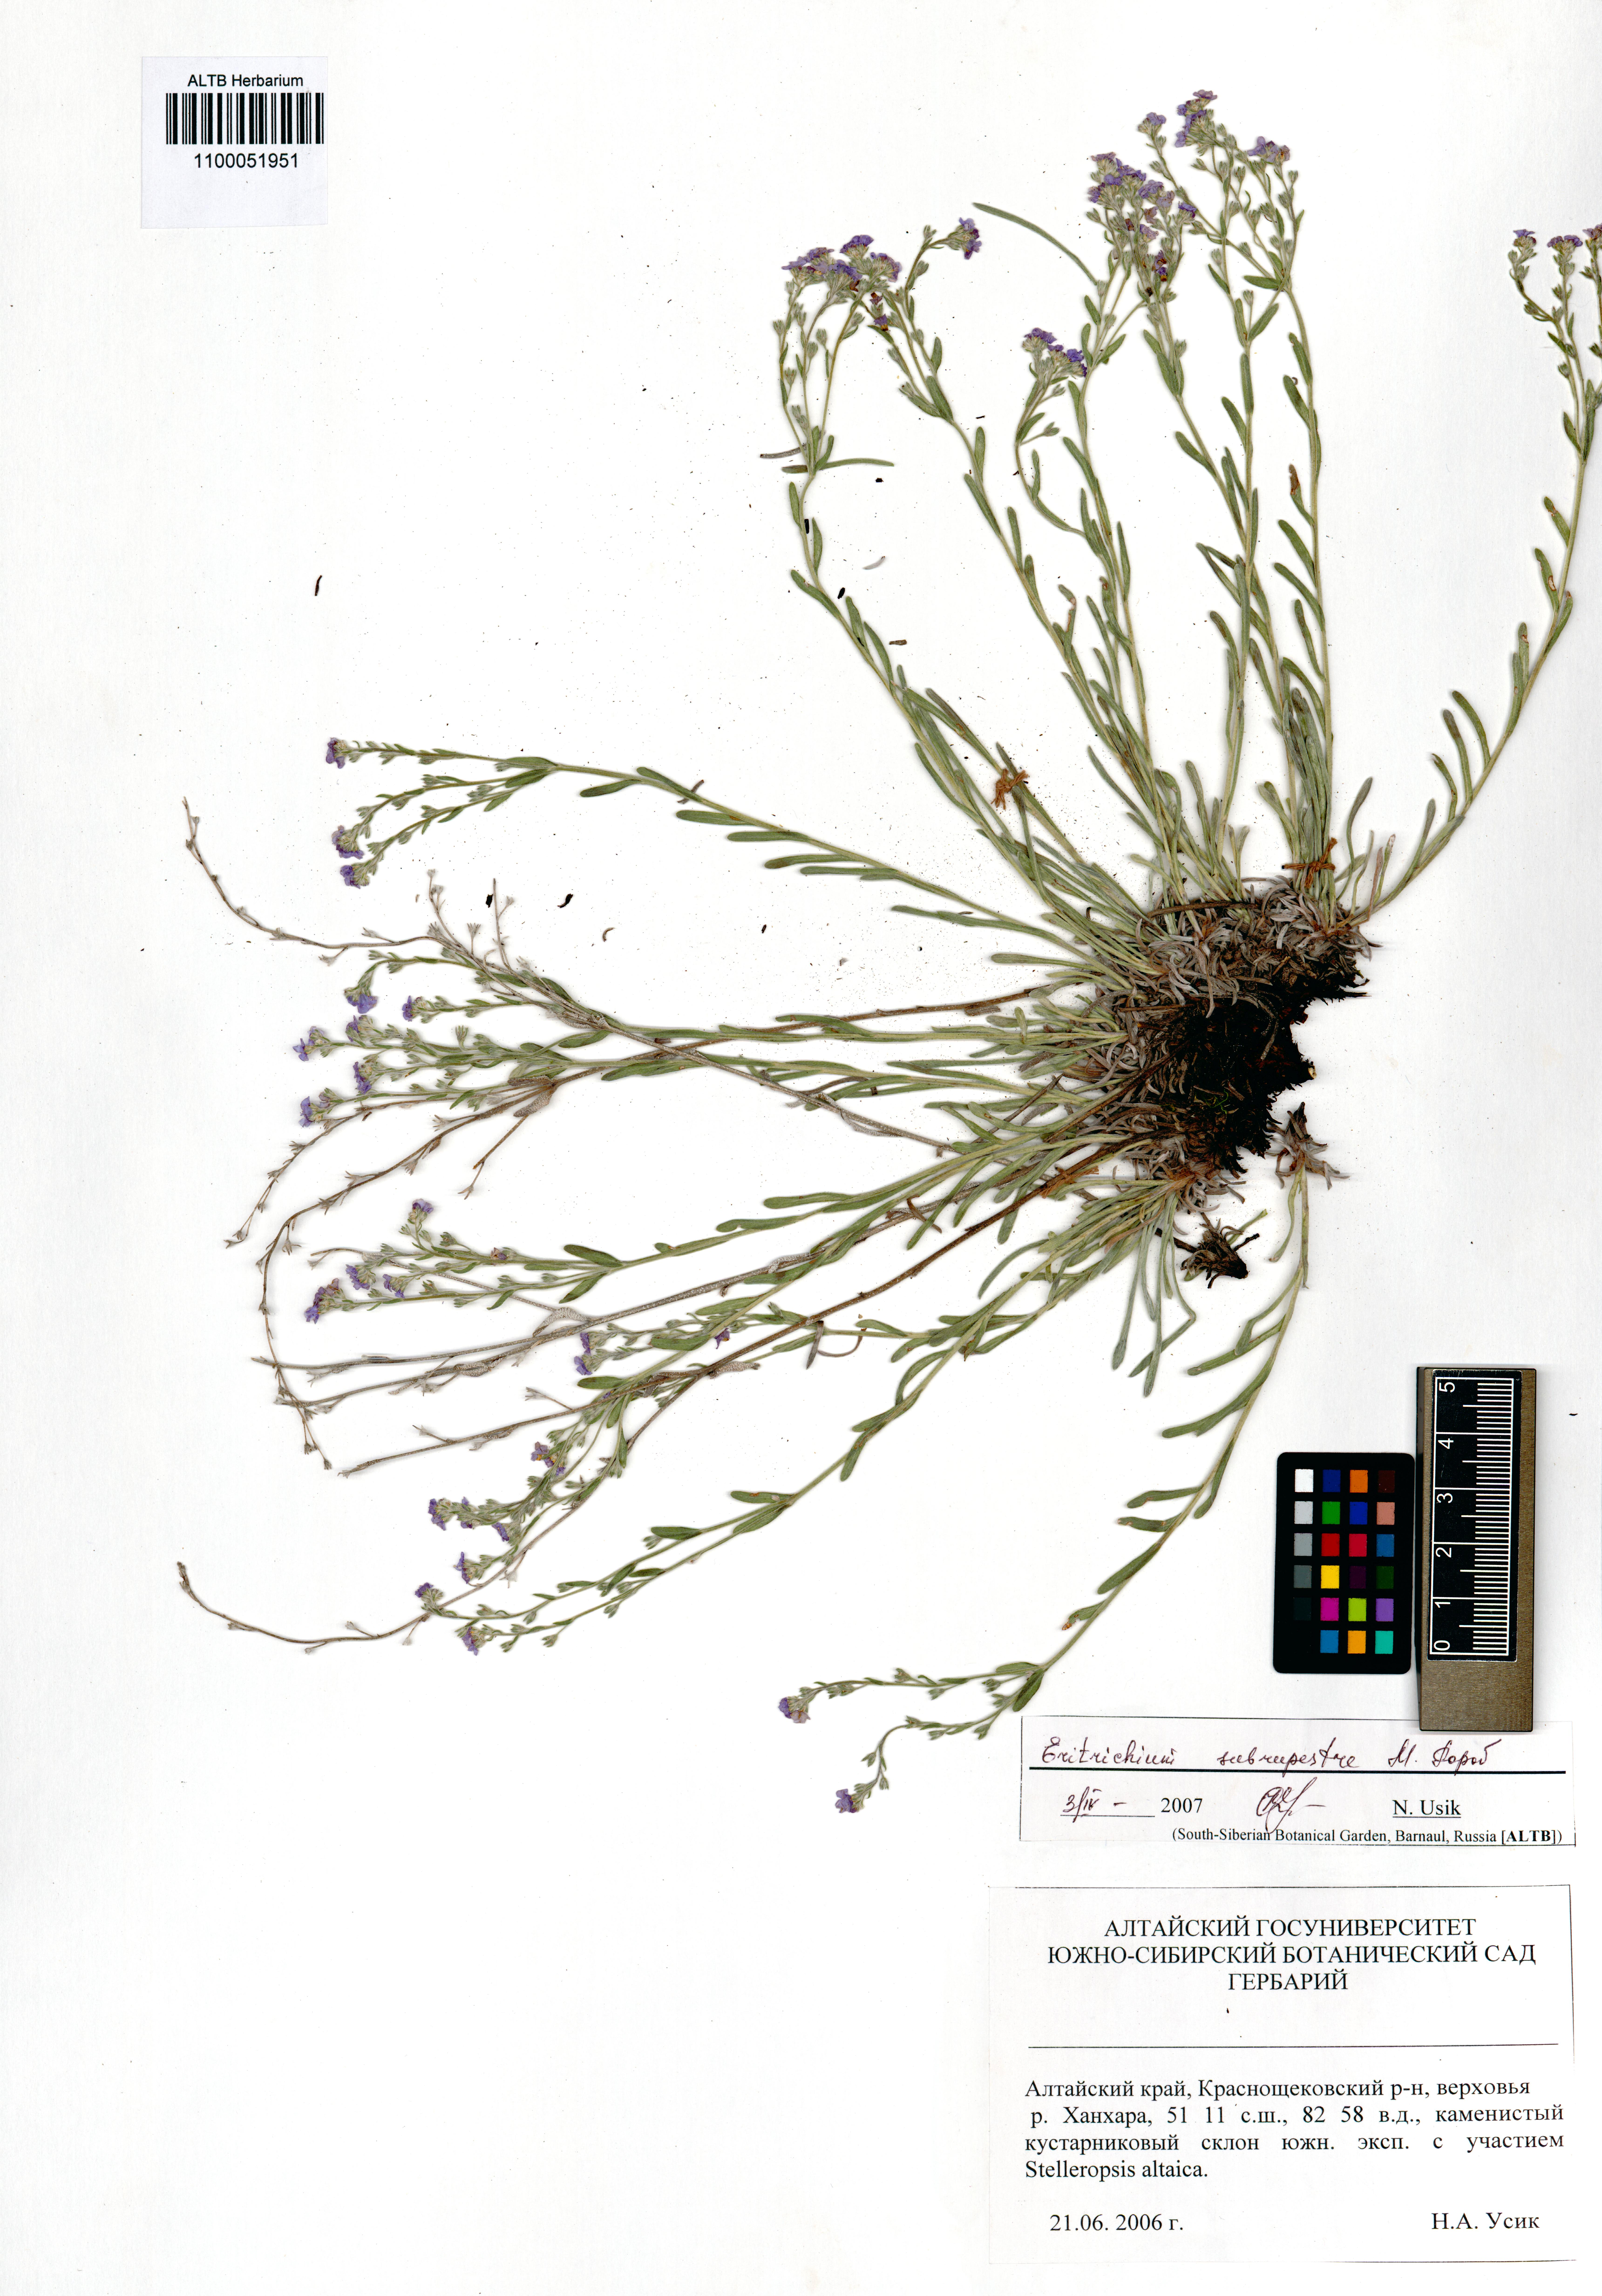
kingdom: Plantae
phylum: Tracheophyta
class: Magnoliopsida
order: Boraginales
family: Boraginaceae
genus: Eritrichium
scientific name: Eritrichium pauciflorum
